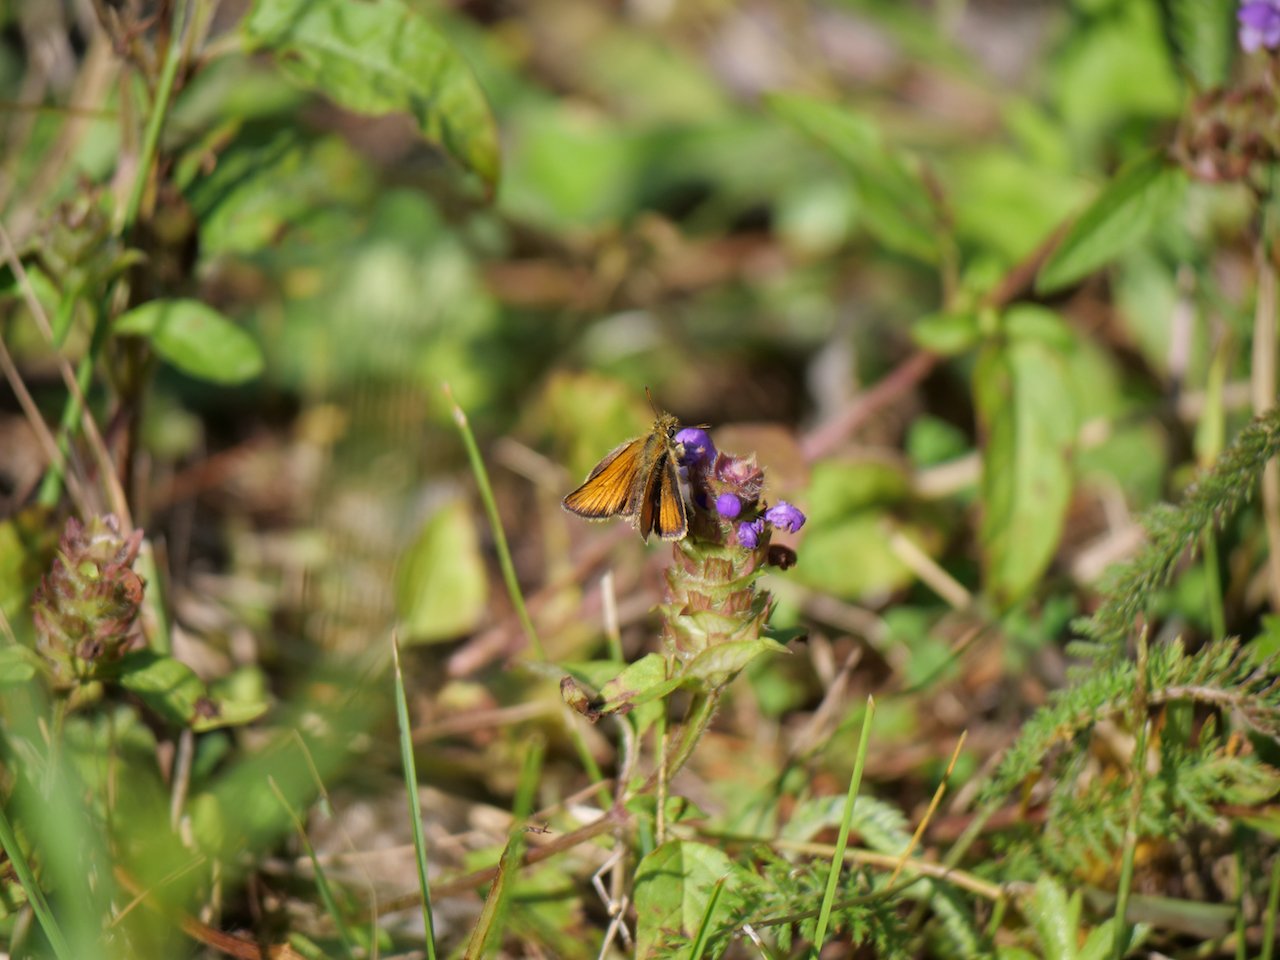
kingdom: Animalia
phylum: Arthropoda
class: Insecta
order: Lepidoptera
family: Hesperiidae
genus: Thymelicus
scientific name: Thymelicus lineola
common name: European Skipper
